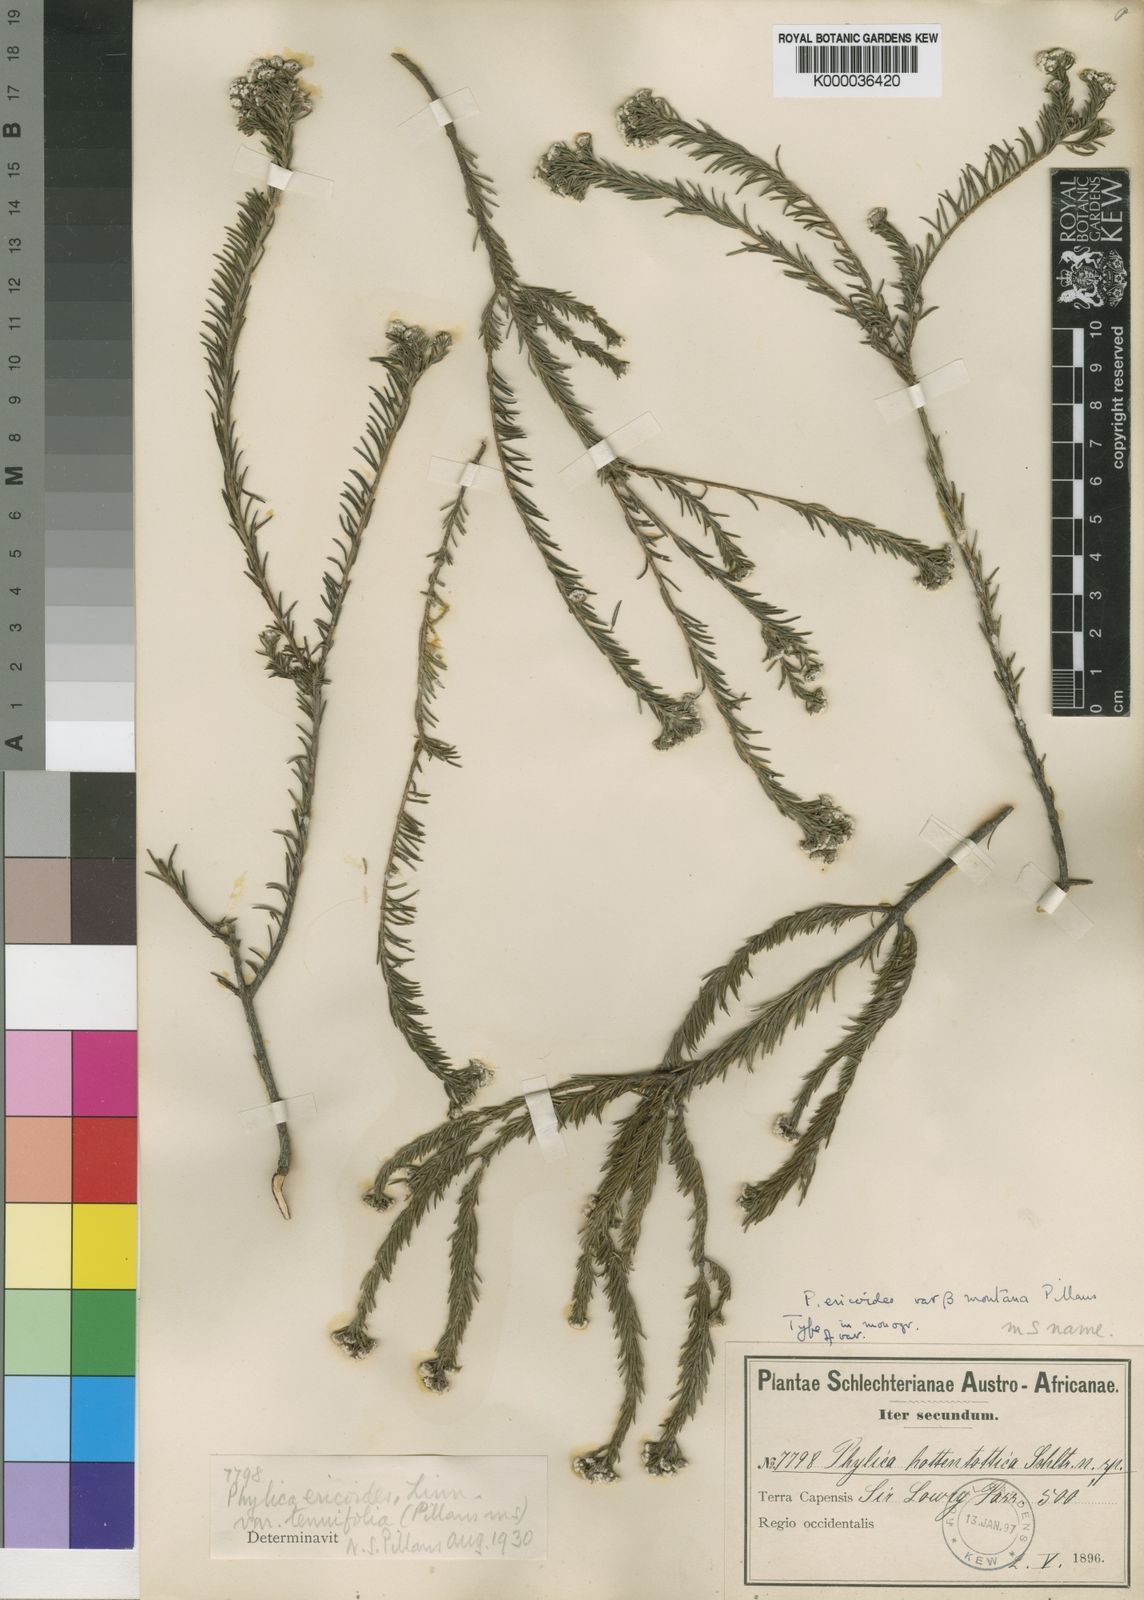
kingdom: Plantae
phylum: Tracheophyta
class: Magnoliopsida
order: Rosales
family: Rhamnaceae
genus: Phylica
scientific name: Phylica ericoides
